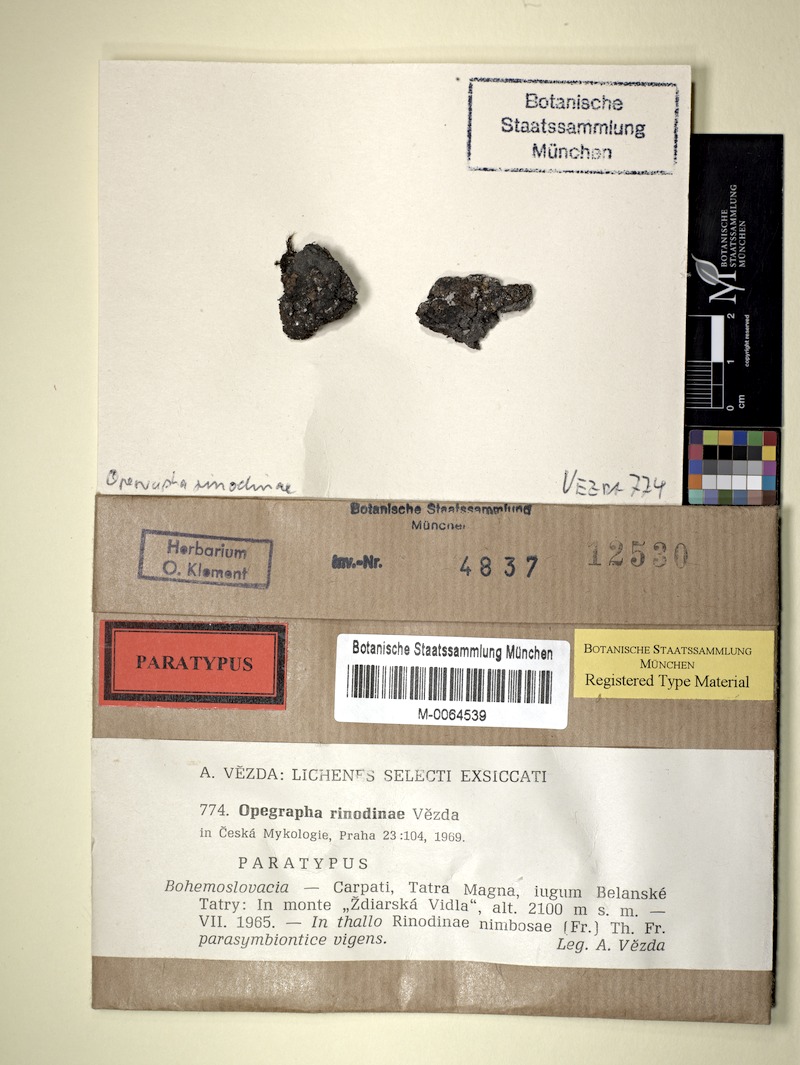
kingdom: Fungi
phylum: Ascomycota
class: Arthoniomycetes
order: Arthoniales
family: Lecanographaceae
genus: Lecanographa
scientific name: Lecanographa rinodinae
